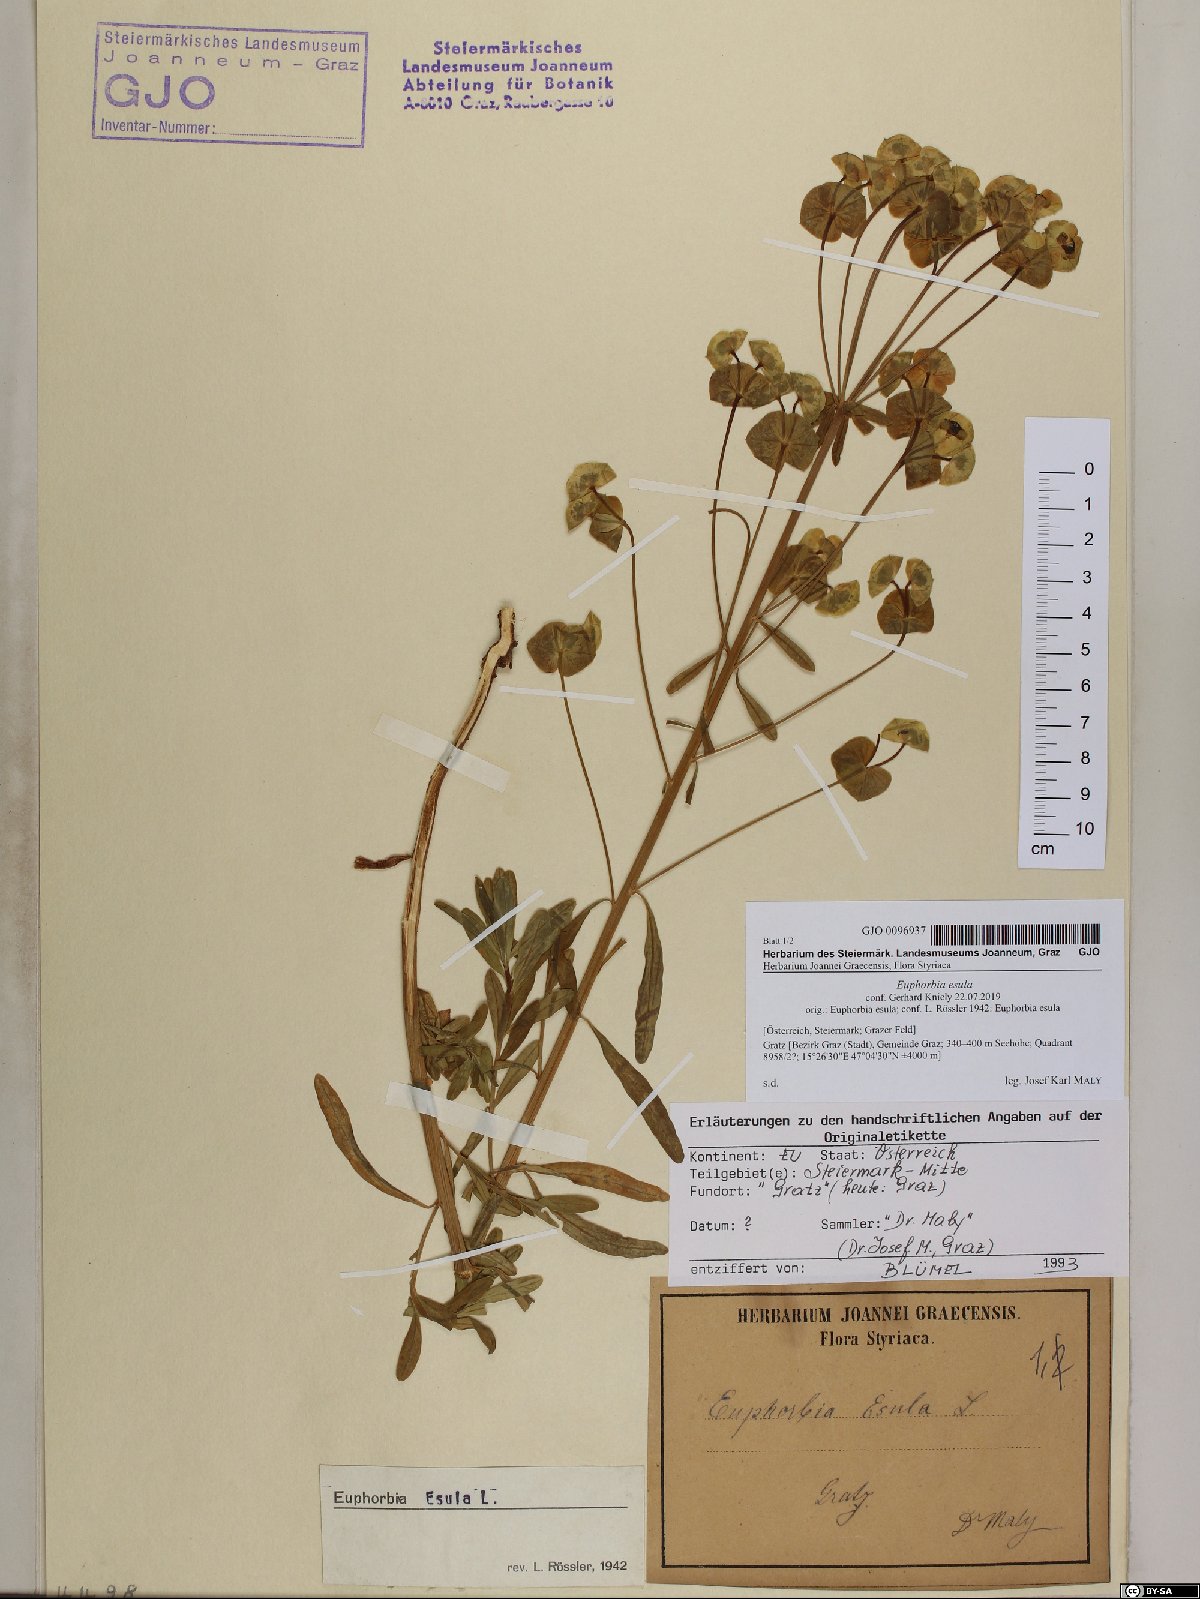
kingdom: Plantae
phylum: Tracheophyta
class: Magnoliopsida
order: Malpighiales
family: Euphorbiaceae
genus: Euphorbia
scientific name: Euphorbia esula
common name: Leafy spurge
